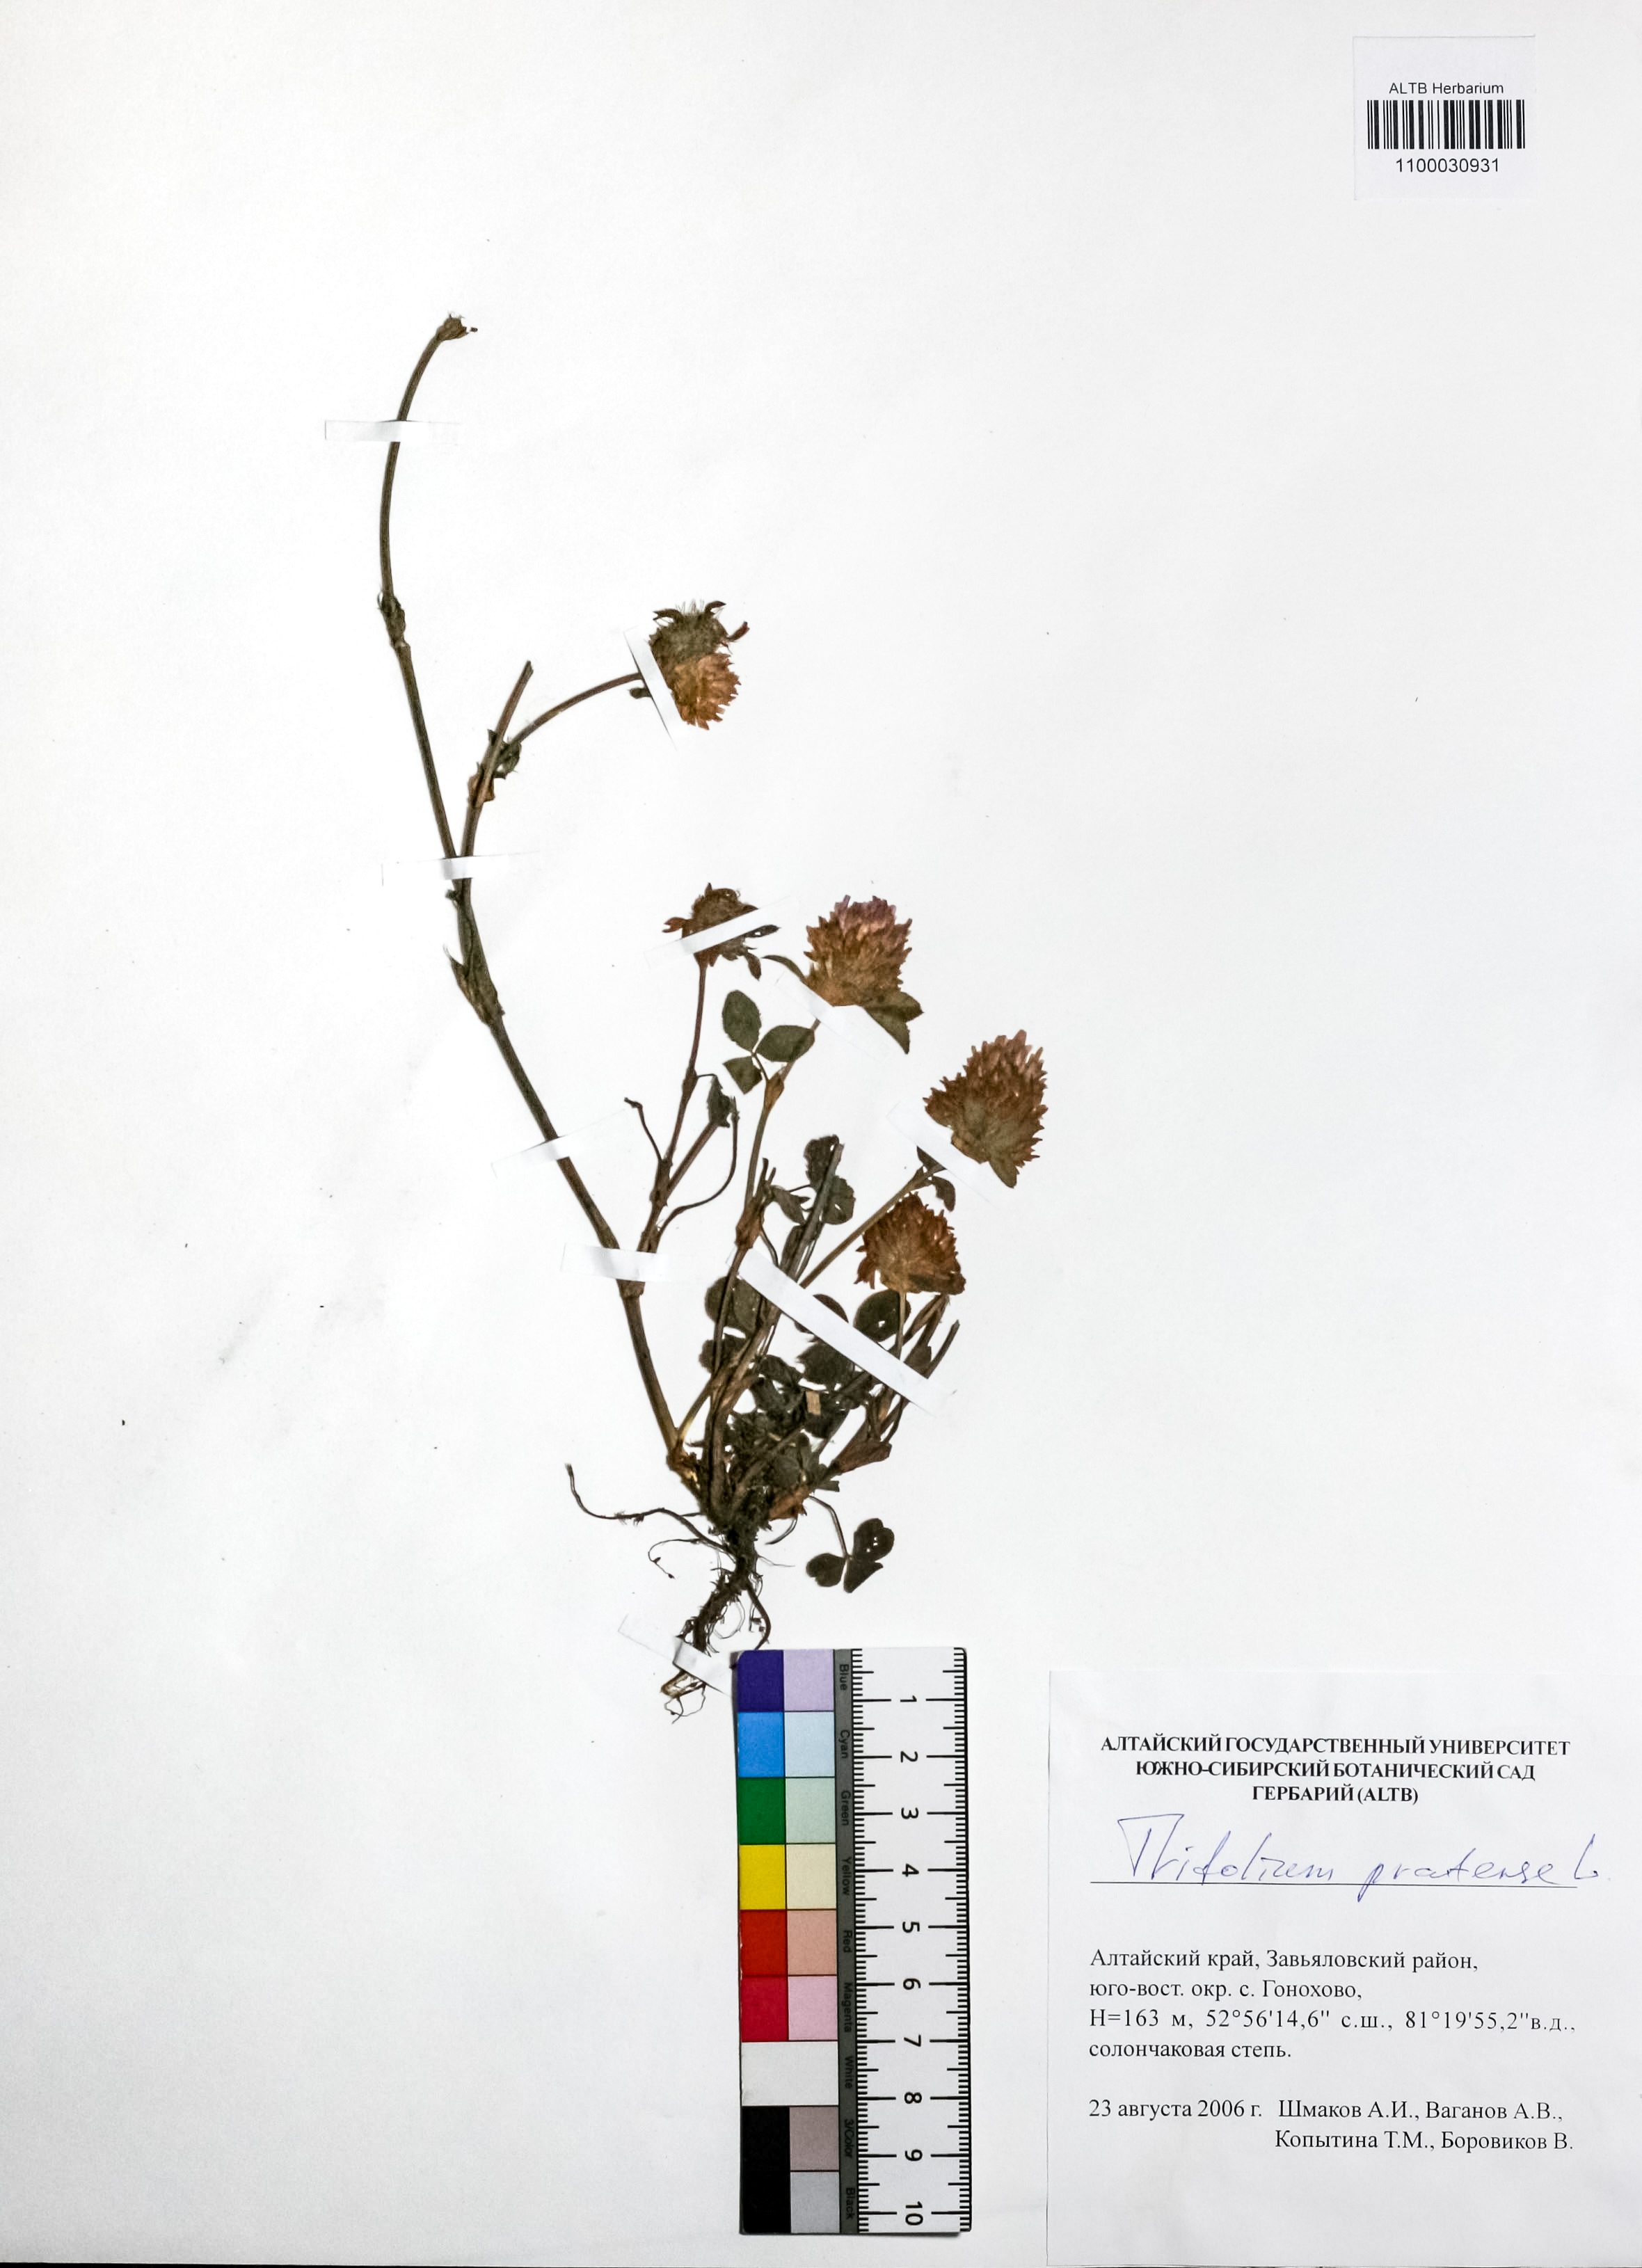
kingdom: Plantae
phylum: Tracheophyta
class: Magnoliopsida
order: Fabales
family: Fabaceae
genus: Trifolium
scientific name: Trifolium pratense
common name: Red clover
